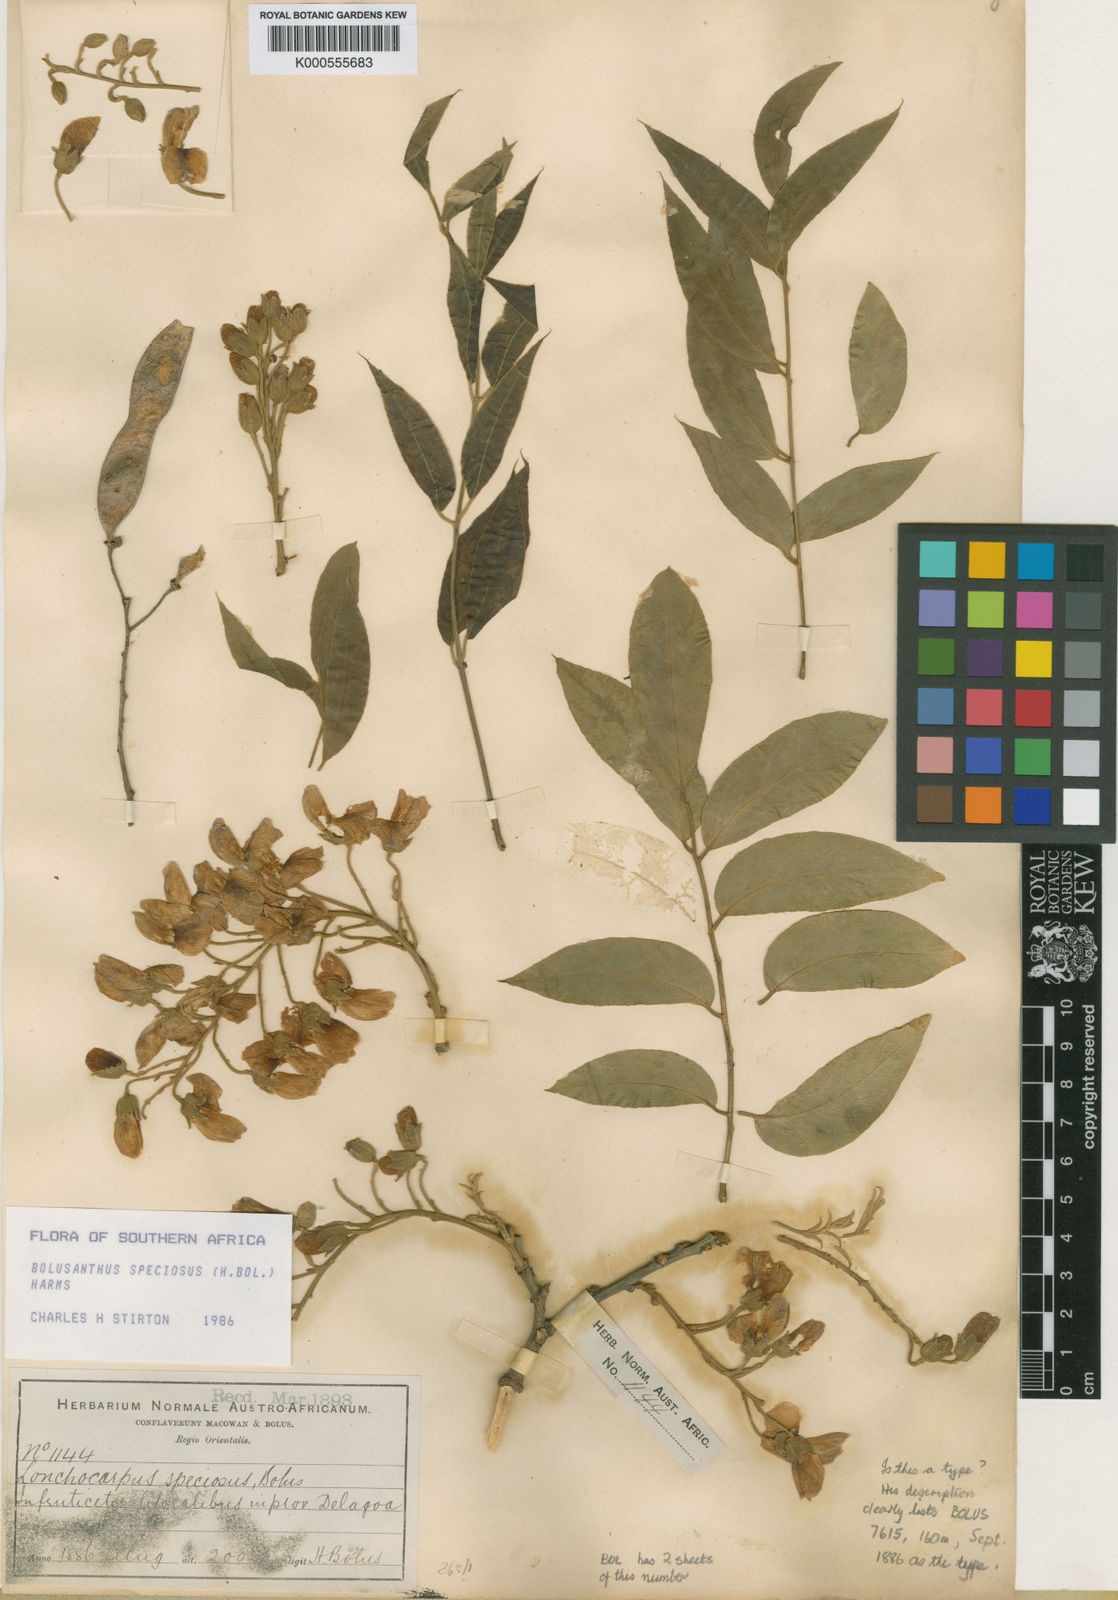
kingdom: Plantae
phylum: Tracheophyta
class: Magnoliopsida
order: Fabales
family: Fabaceae
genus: Bolusanthus
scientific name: Bolusanthus speciosus
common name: Tree wisteria
